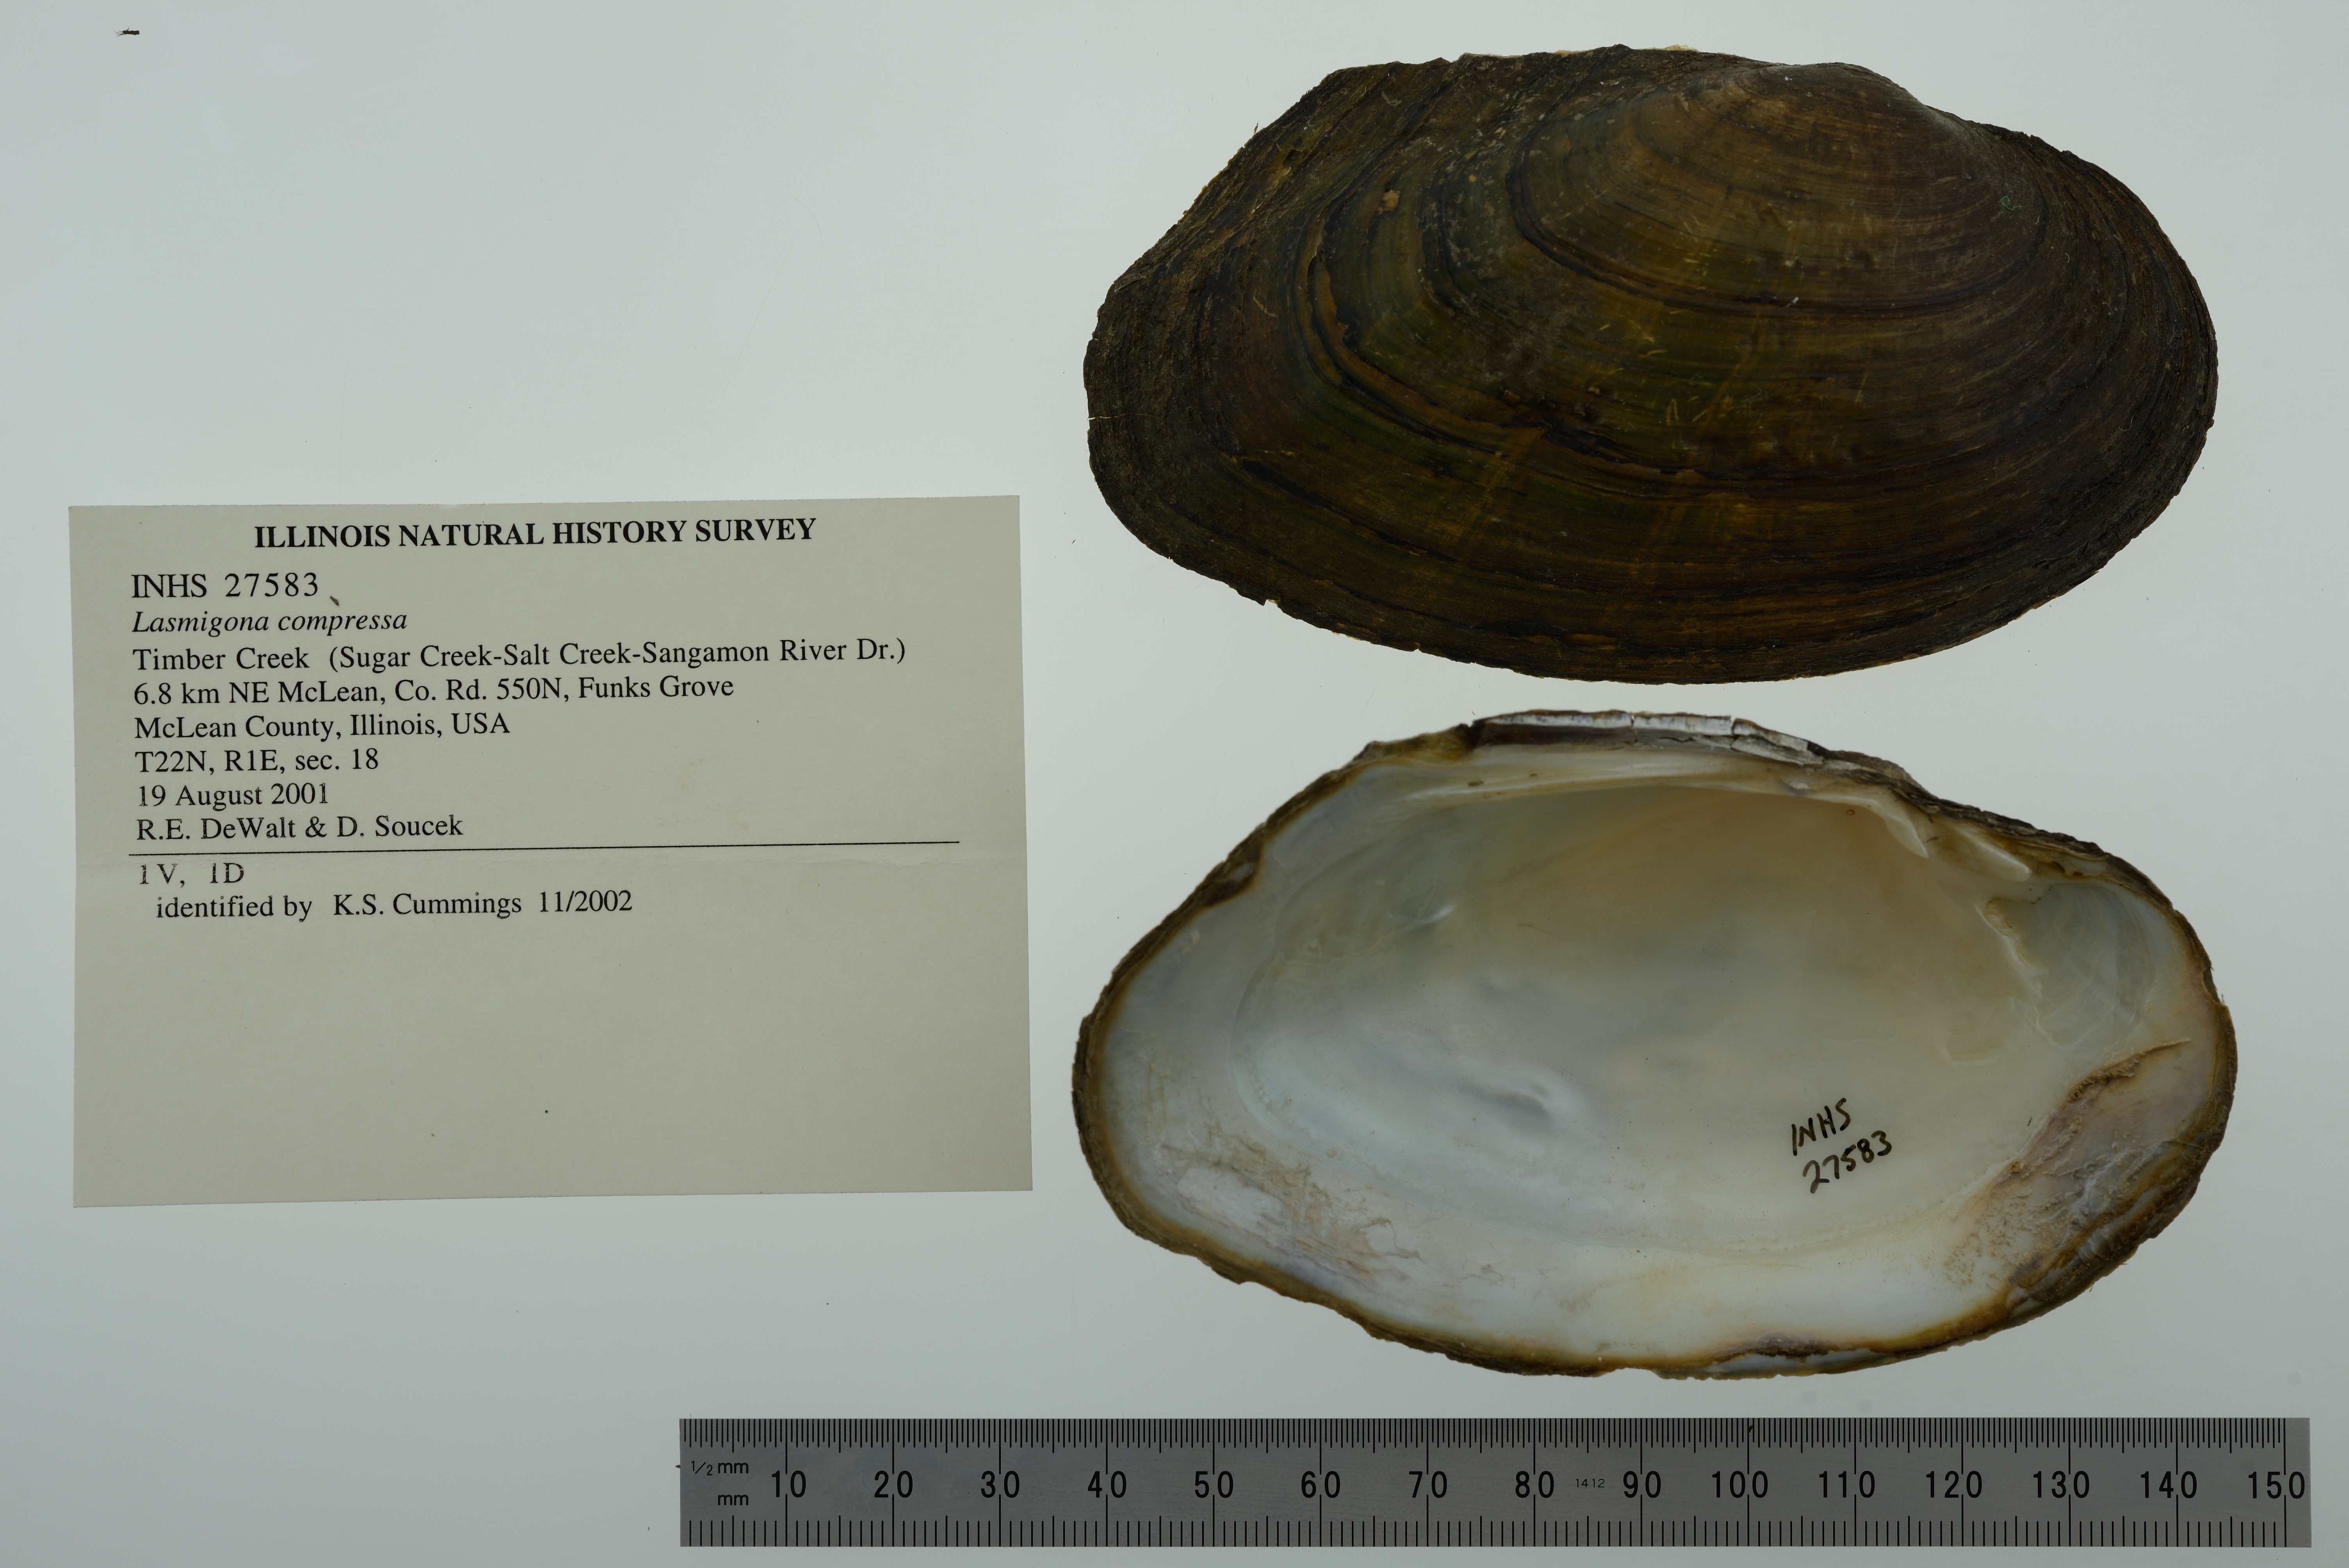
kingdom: Animalia
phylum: Mollusca
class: Bivalvia
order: Unionida
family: Unionidae
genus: Lasmigona
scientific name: Lasmigona compressa
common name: Creek heelsplitter
